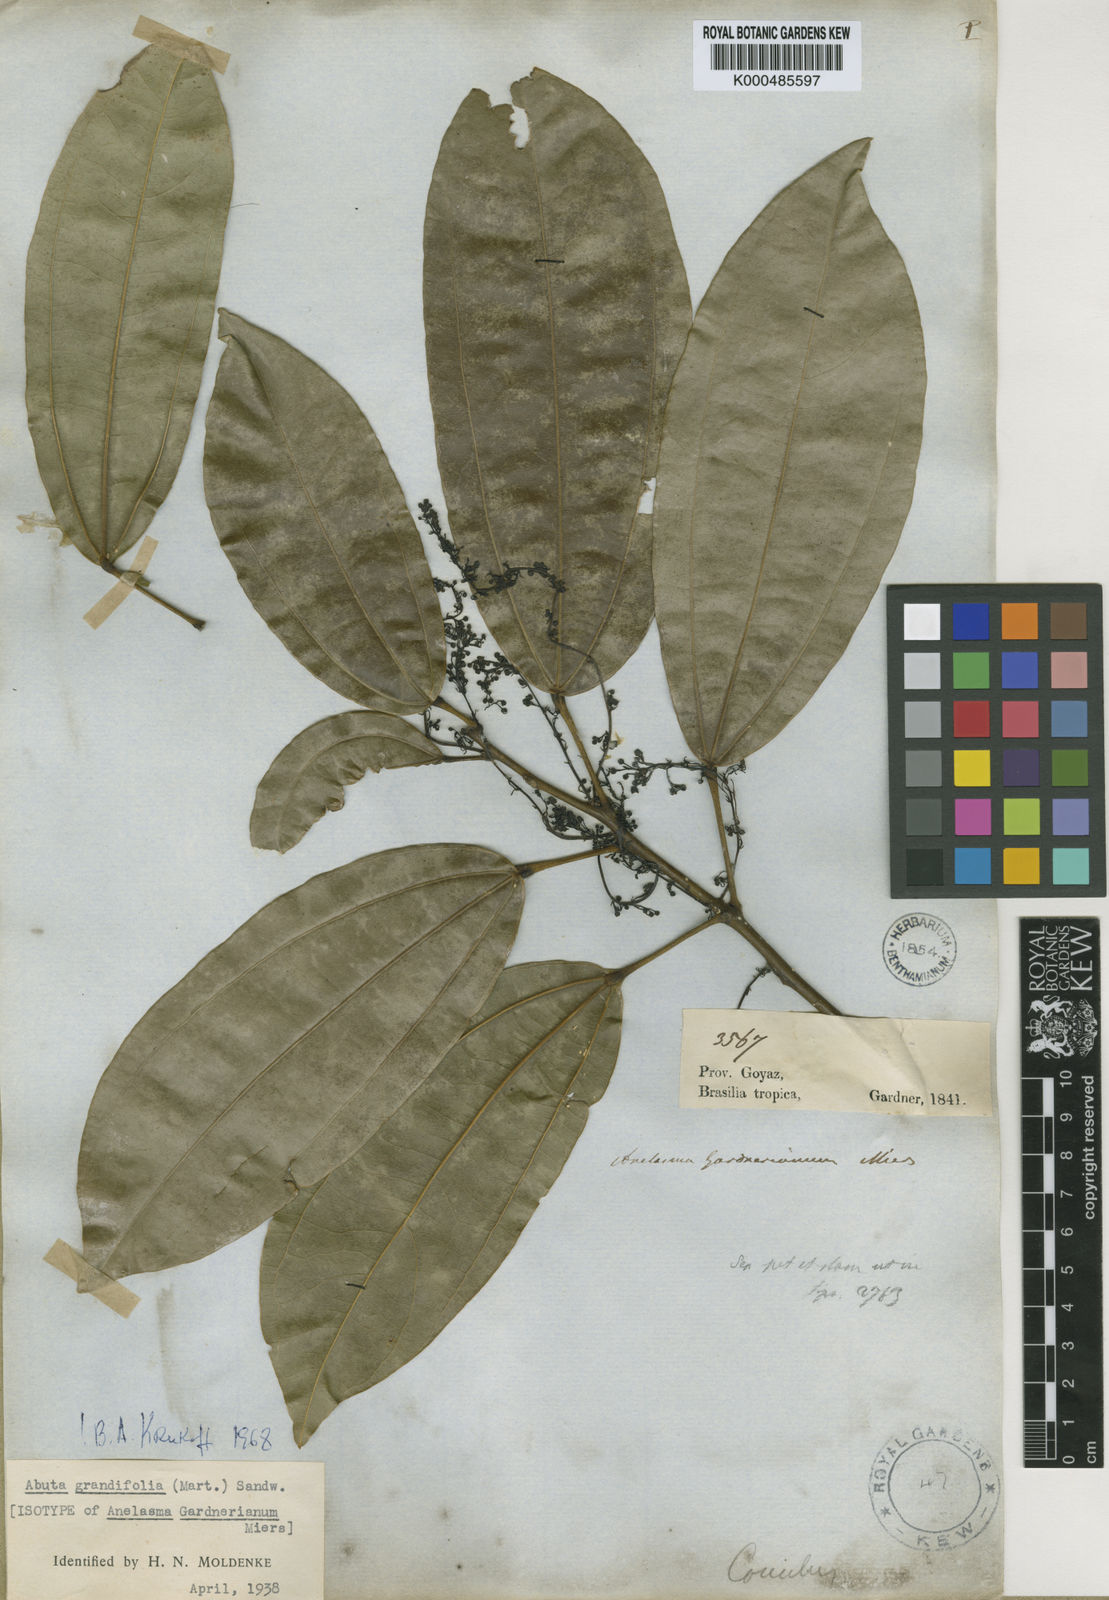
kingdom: Plantae
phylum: Tracheophyta
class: Magnoliopsida
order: Ranunculales
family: Menispermaceae
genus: Abuta
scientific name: Abuta grandifolia
